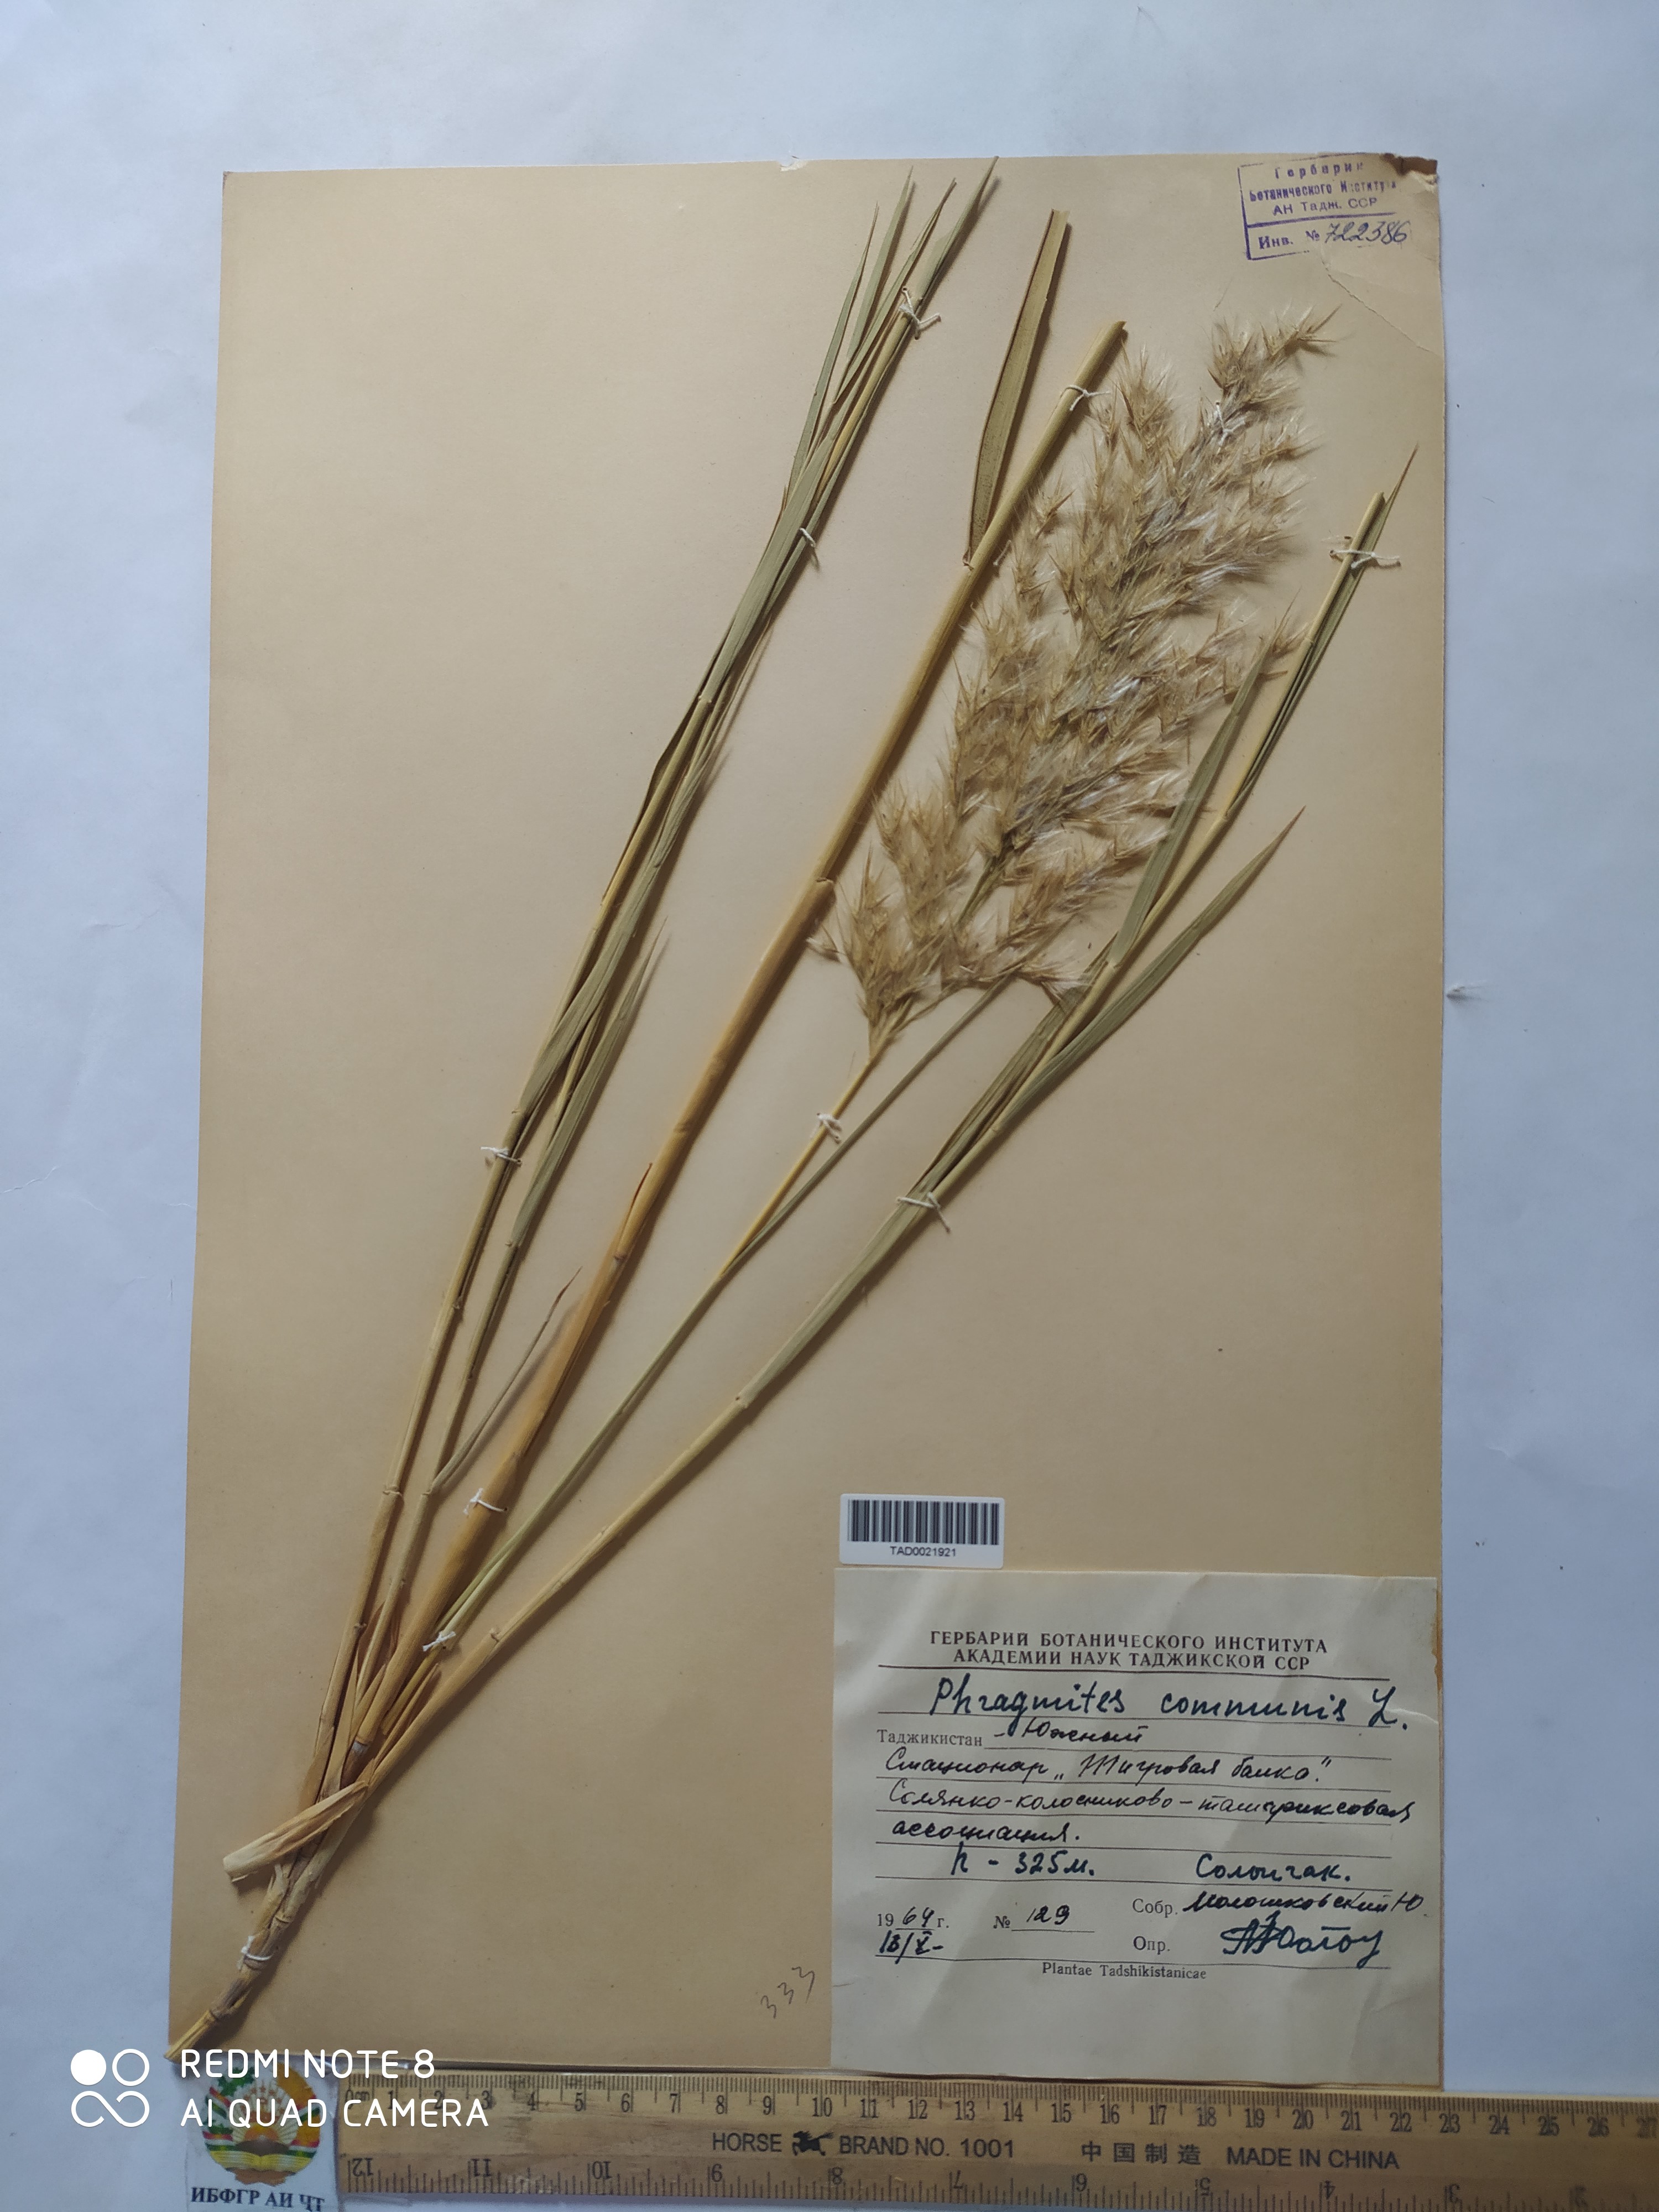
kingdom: Plantae
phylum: Tracheophyta
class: Liliopsida
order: Poales
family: Poaceae
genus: Phragmites
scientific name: Phragmites australis
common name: Common reed
